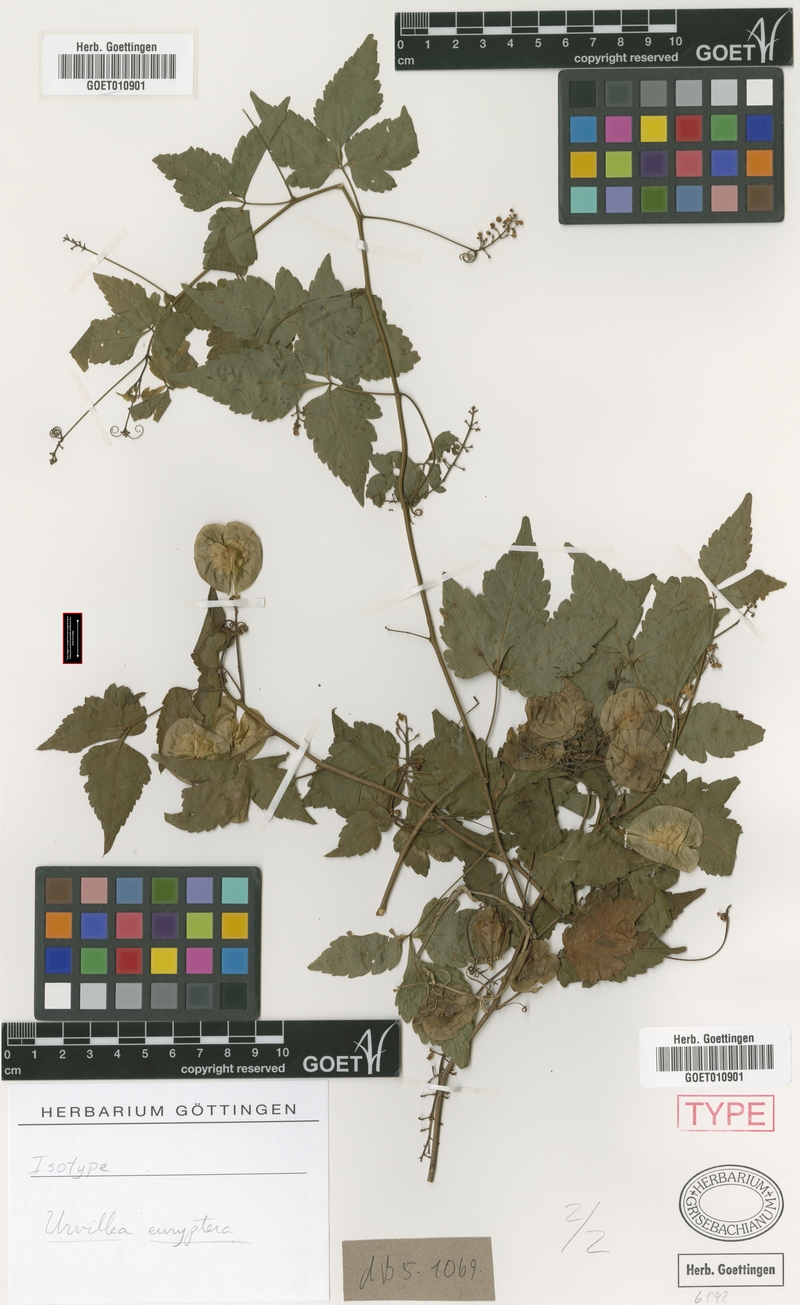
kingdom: Plantae
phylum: Tracheophyta
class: Magnoliopsida
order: Sapindales
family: Sapindaceae
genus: Urvillea
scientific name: Urvillea uniloba
